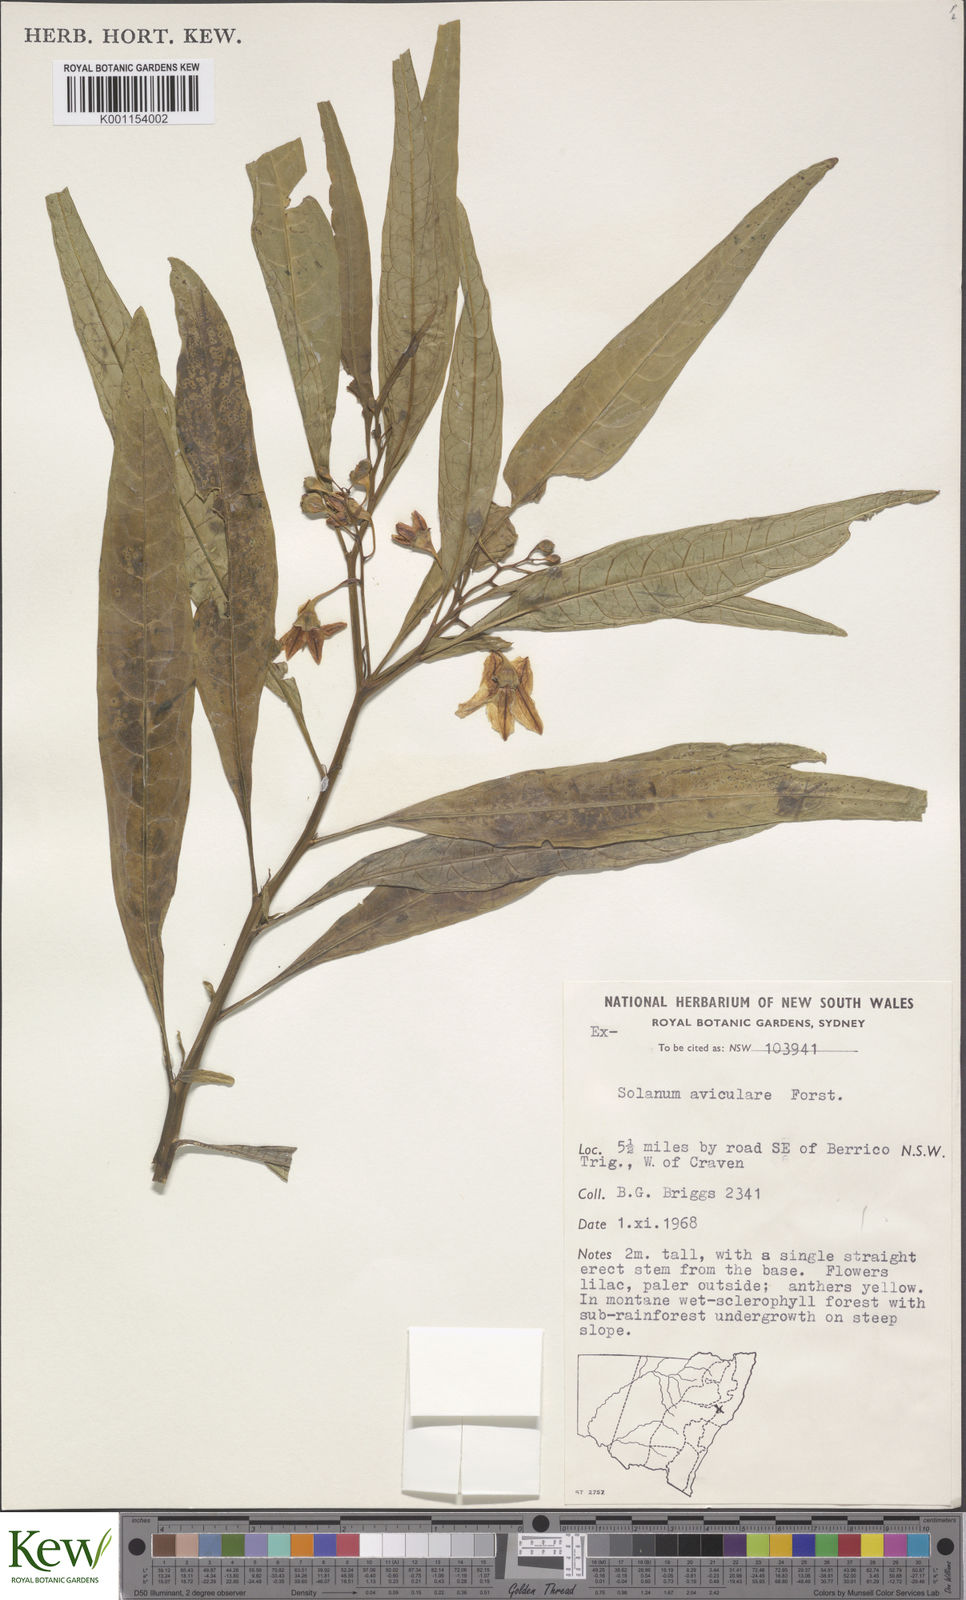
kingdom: Plantae
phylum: Tracheophyta
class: Magnoliopsida
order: Solanales
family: Solanaceae
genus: Solanum
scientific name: Solanum aviculare
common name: New zealand nightshade
